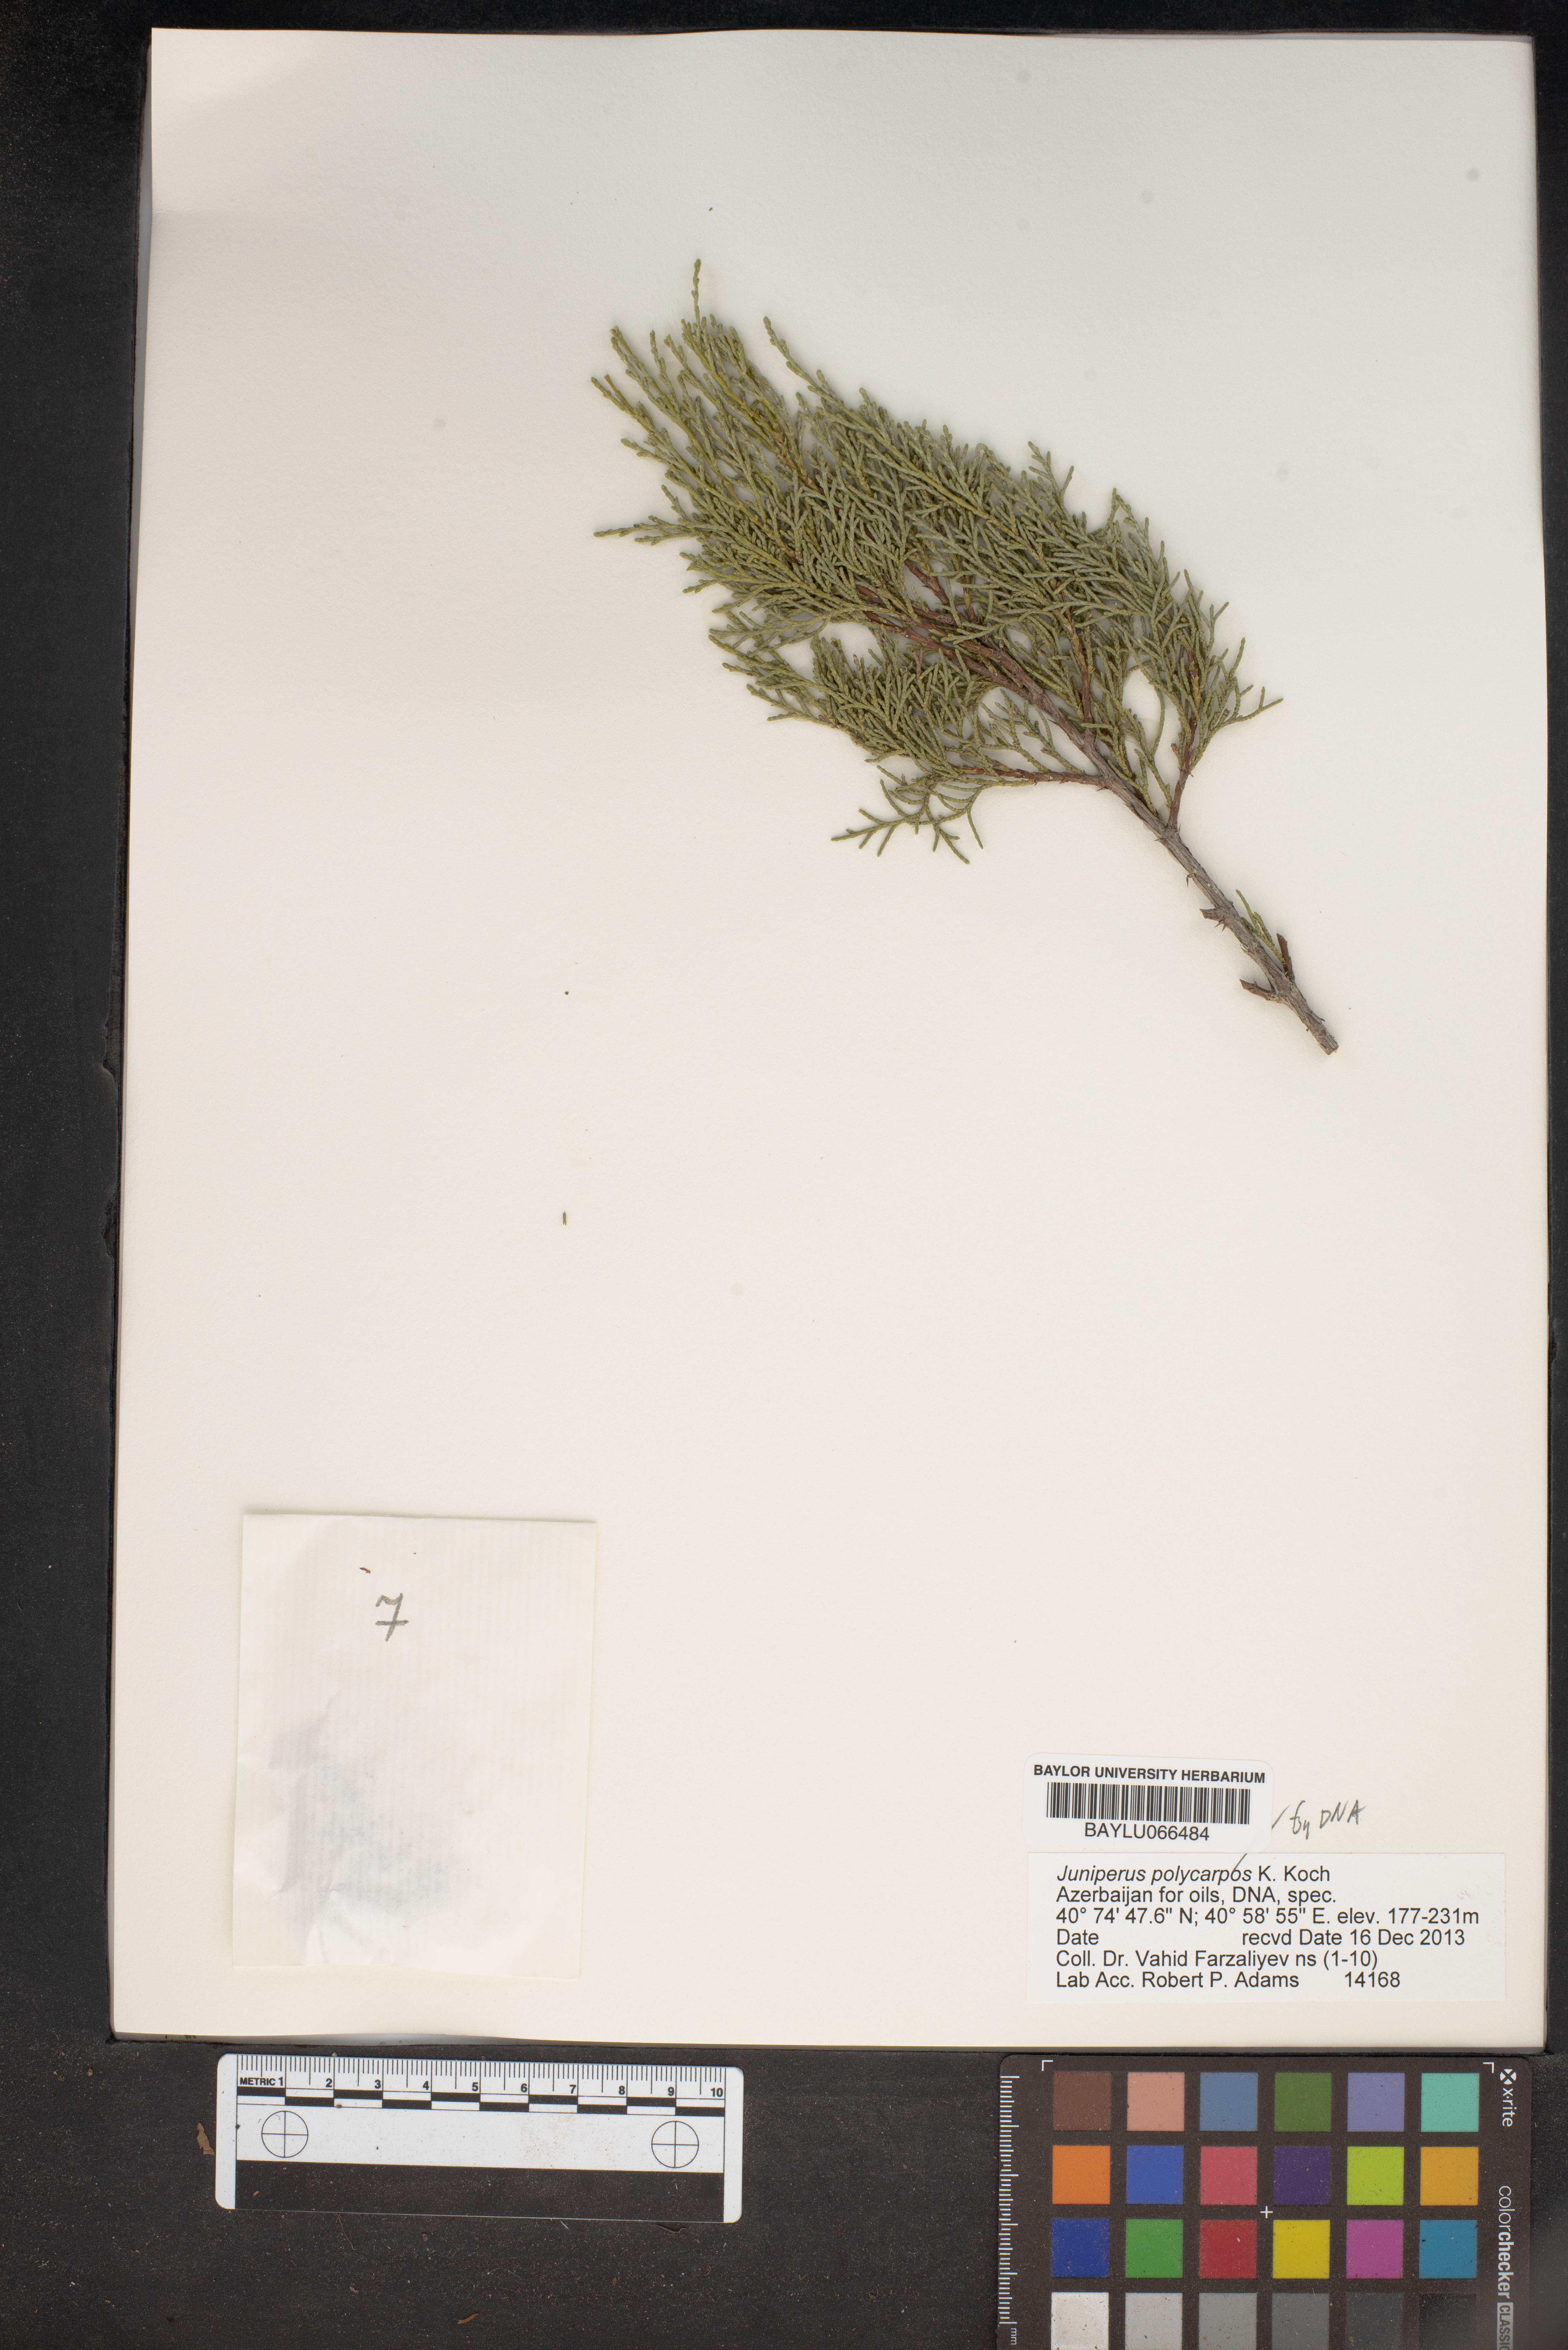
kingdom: Plantae
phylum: Tracheophyta
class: Pinopsida
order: Pinales
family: Cupressaceae
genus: Juniperus
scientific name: Juniperus excelsa
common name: Crimean juniper
